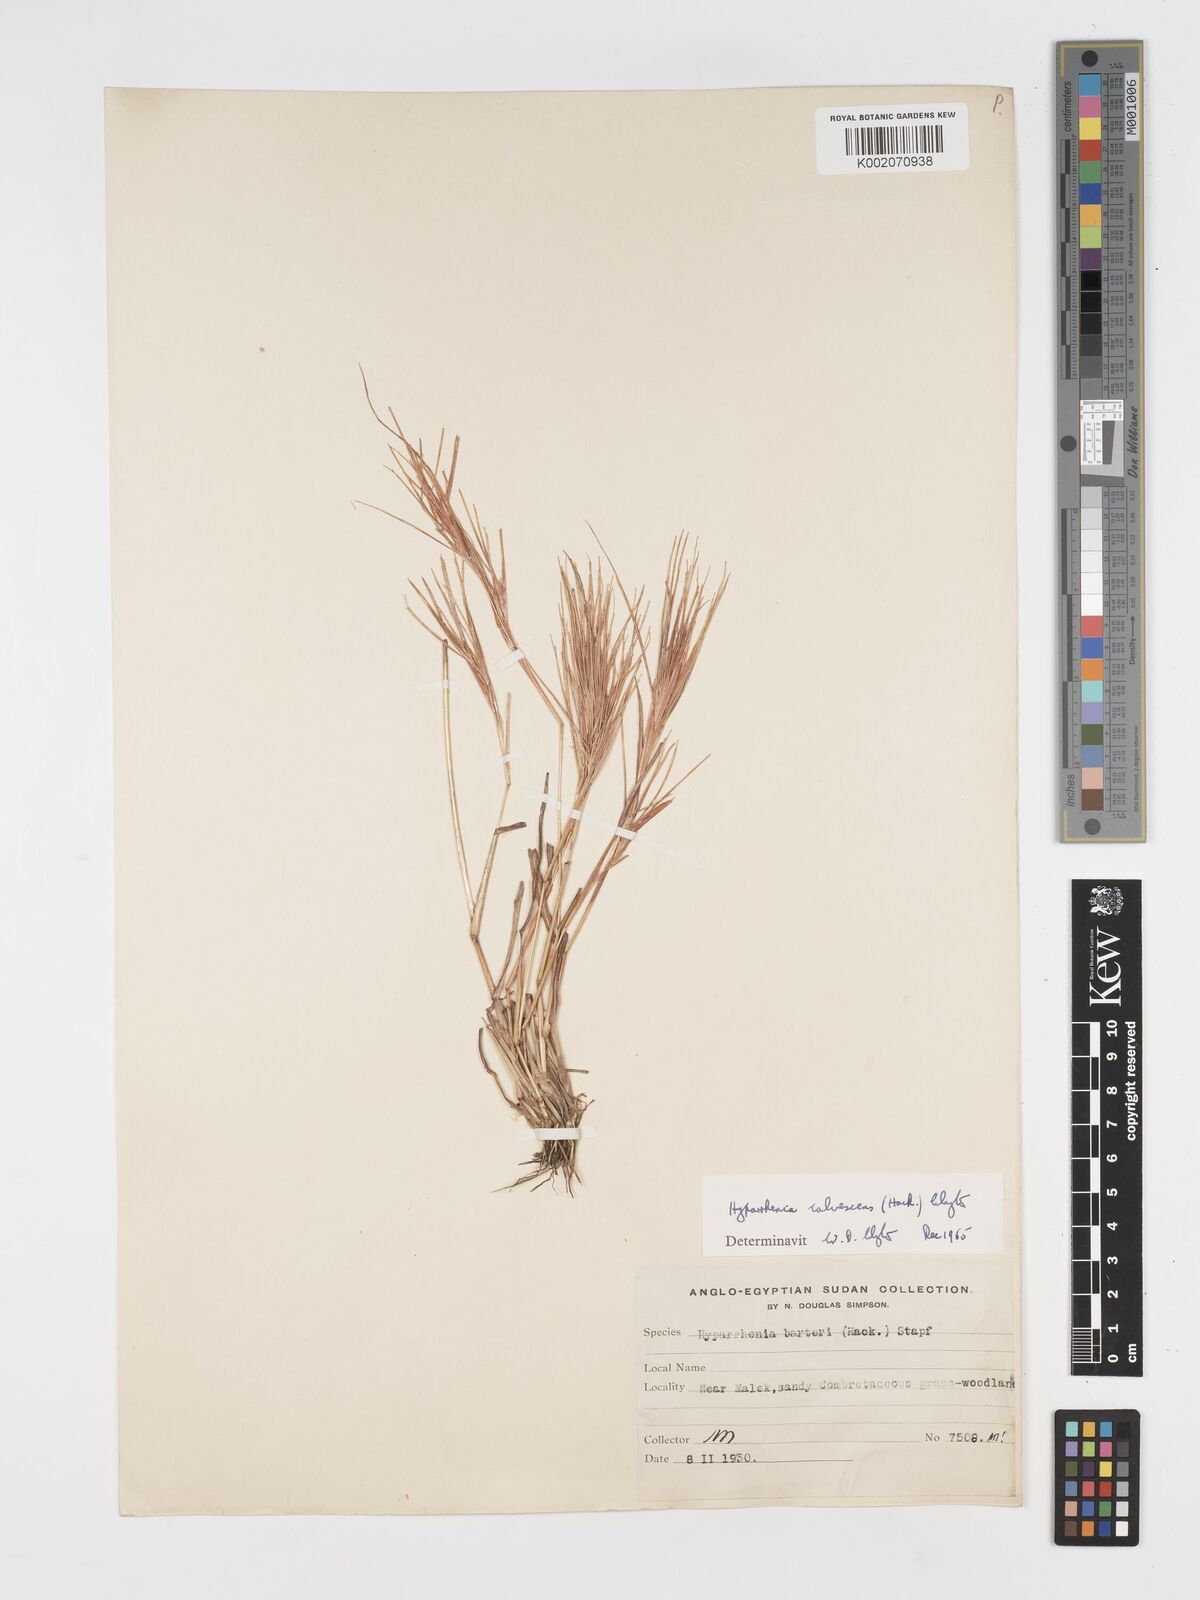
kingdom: Plantae
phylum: Tracheophyta
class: Liliopsida
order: Poales
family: Poaceae
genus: Hyparrhenia
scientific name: Hyparrhenia figariana
